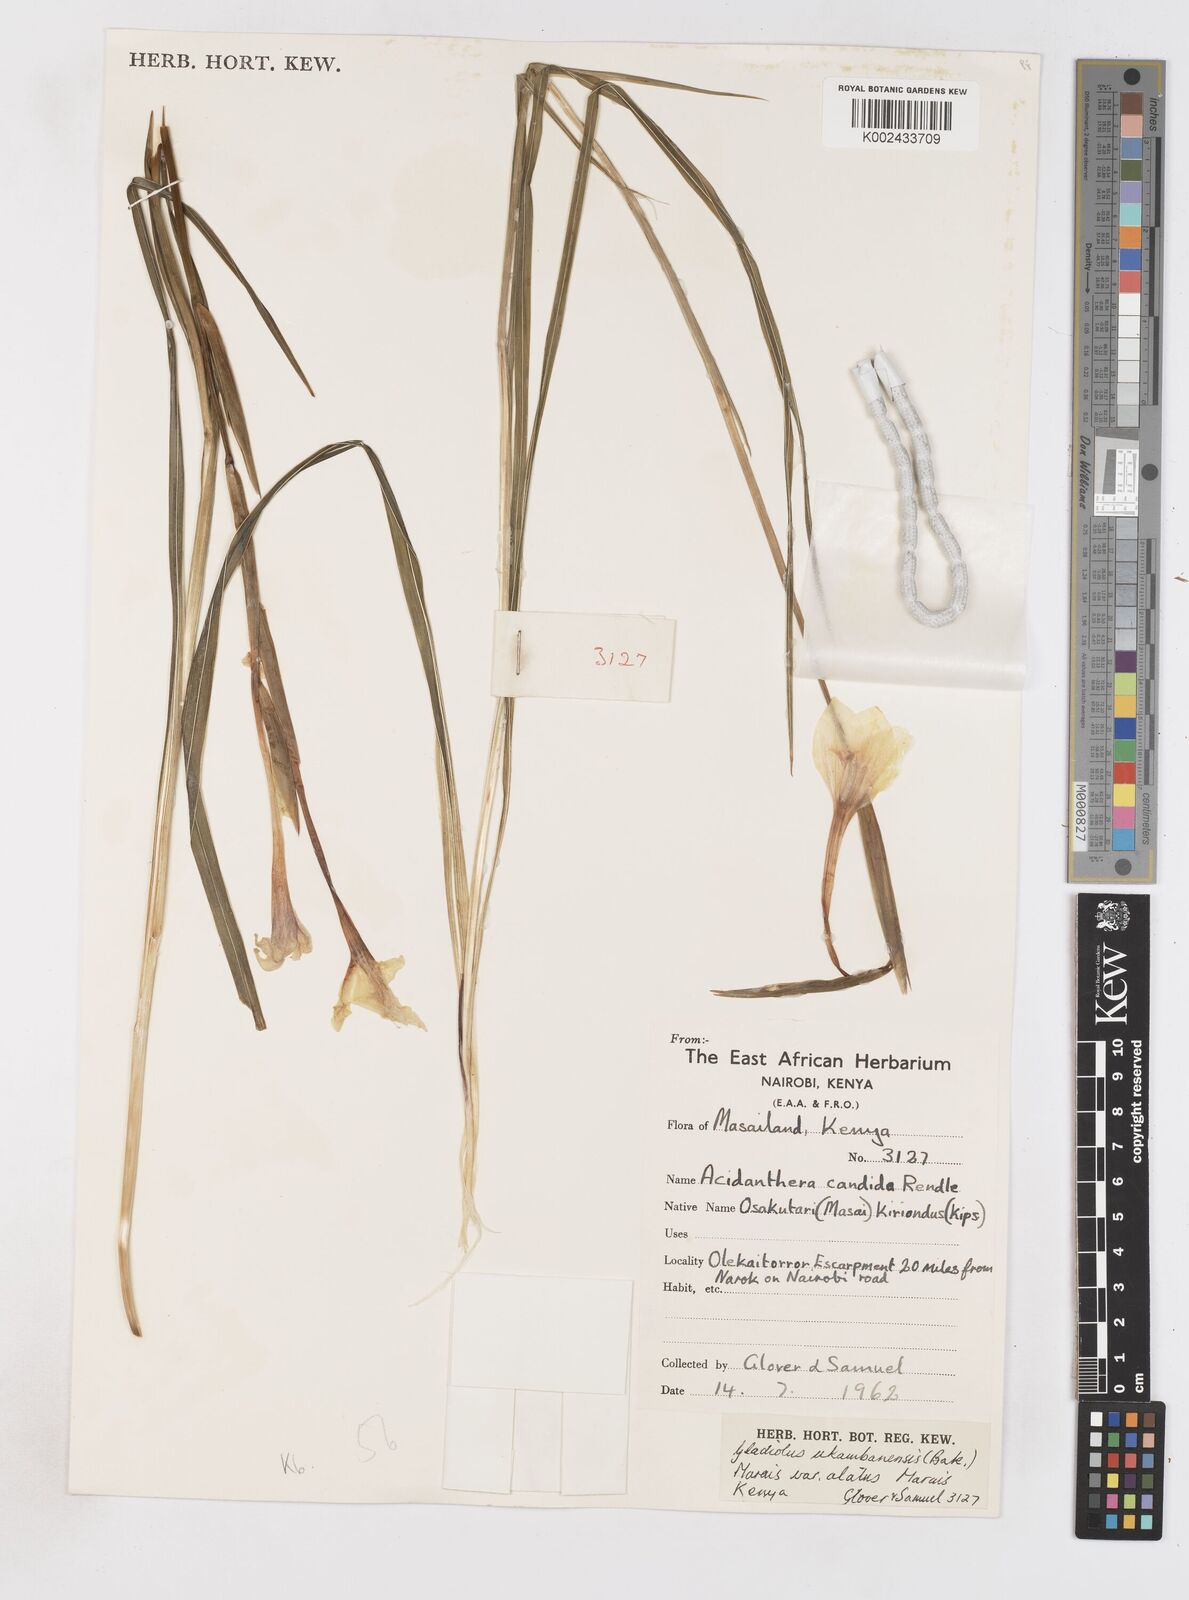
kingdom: Plantae
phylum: Tracheophyta
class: Liliopsida
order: Asparagales
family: Iridaceae
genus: Gladiolus
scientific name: Gladiolus candidus
